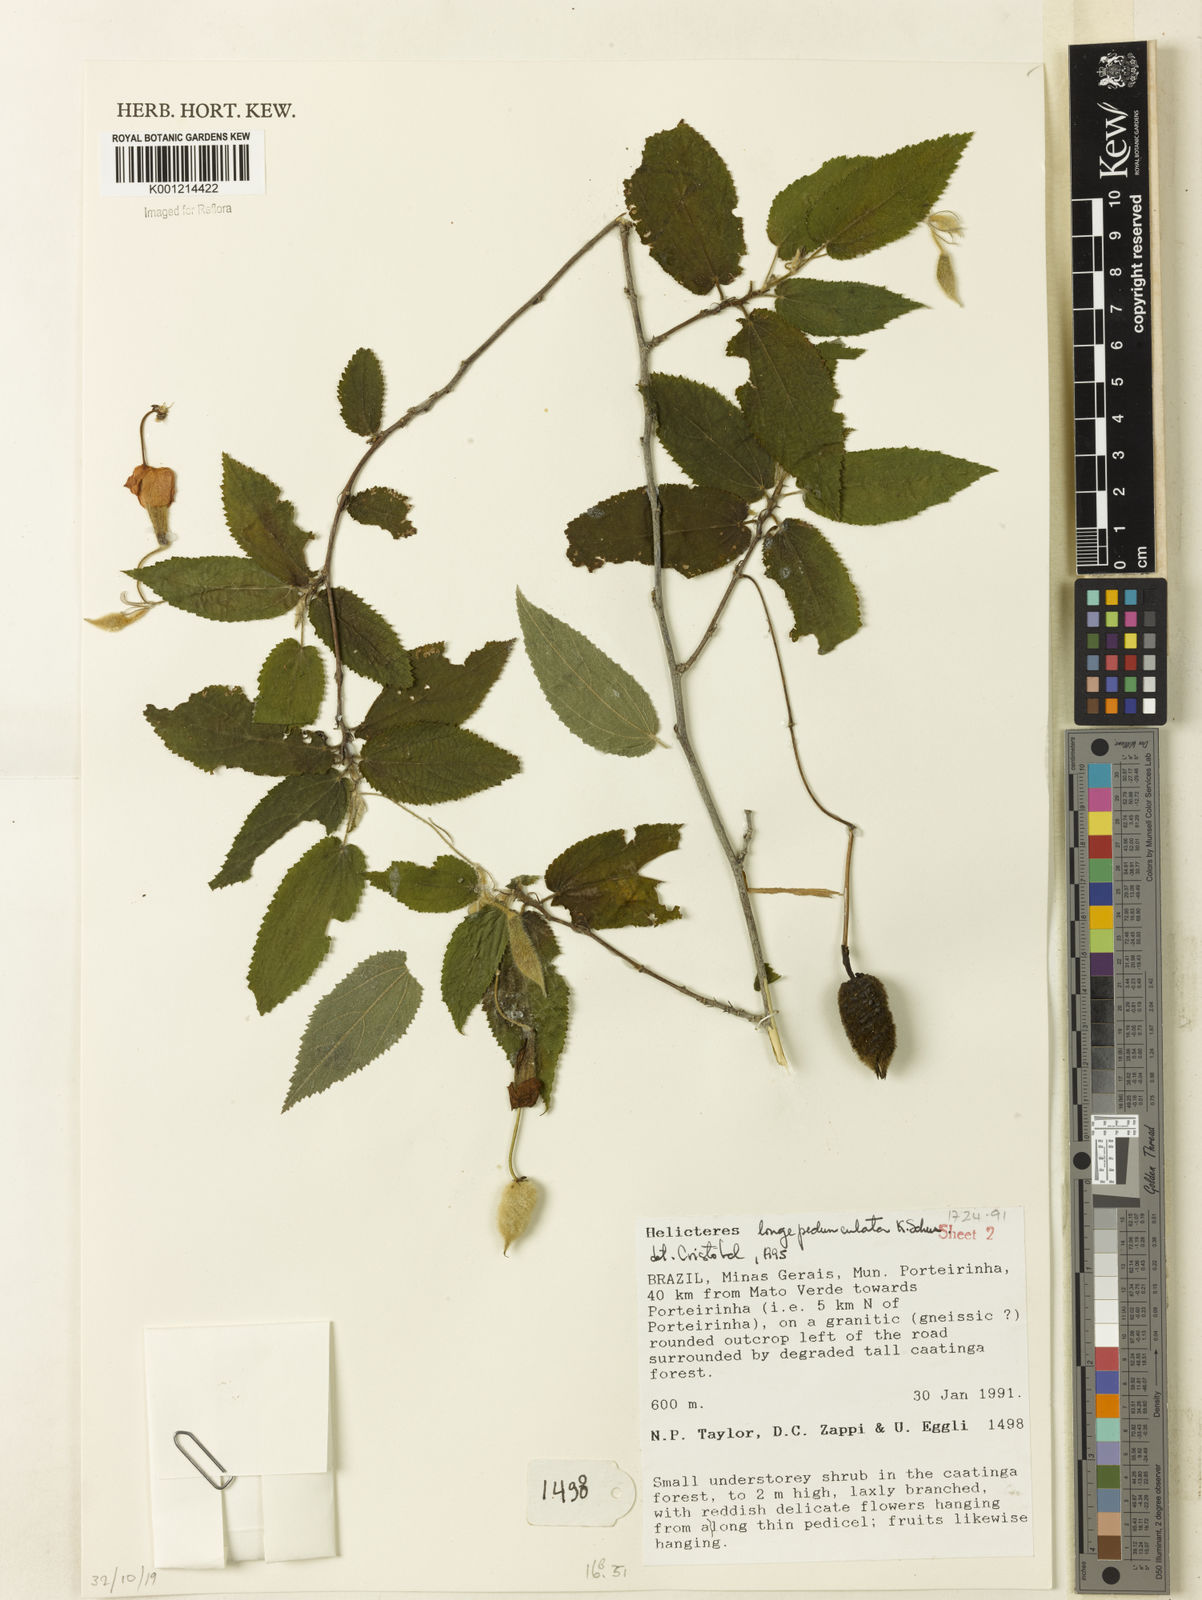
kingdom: Plantae
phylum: Tracheophyta
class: Magnoliopsida
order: Malvales
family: Malvaceae
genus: Helicteres
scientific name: Helicteres longepedunculata
